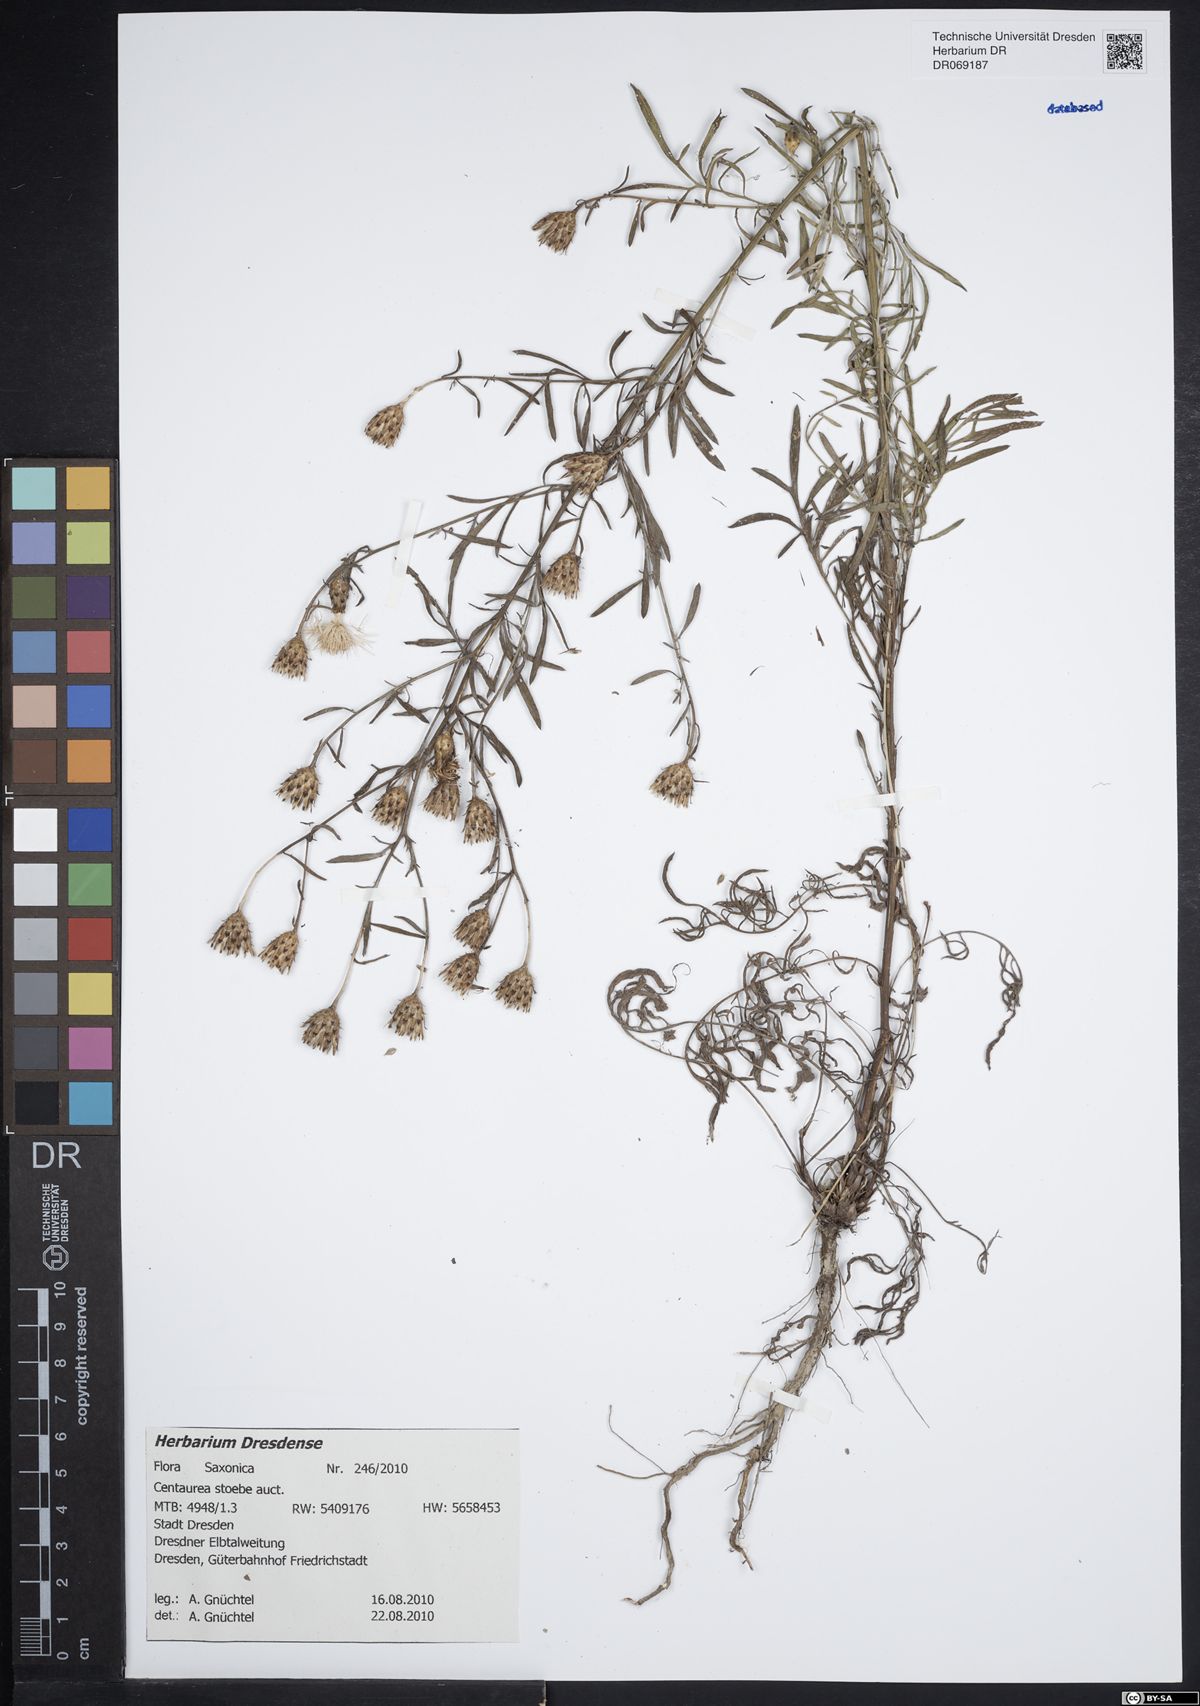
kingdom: Plantae
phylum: Tracheophyta
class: Magnoliopsida
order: Asterales
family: Asteraceae
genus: Centaurea
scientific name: Centaurea stoebe
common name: Spotted knapweed
